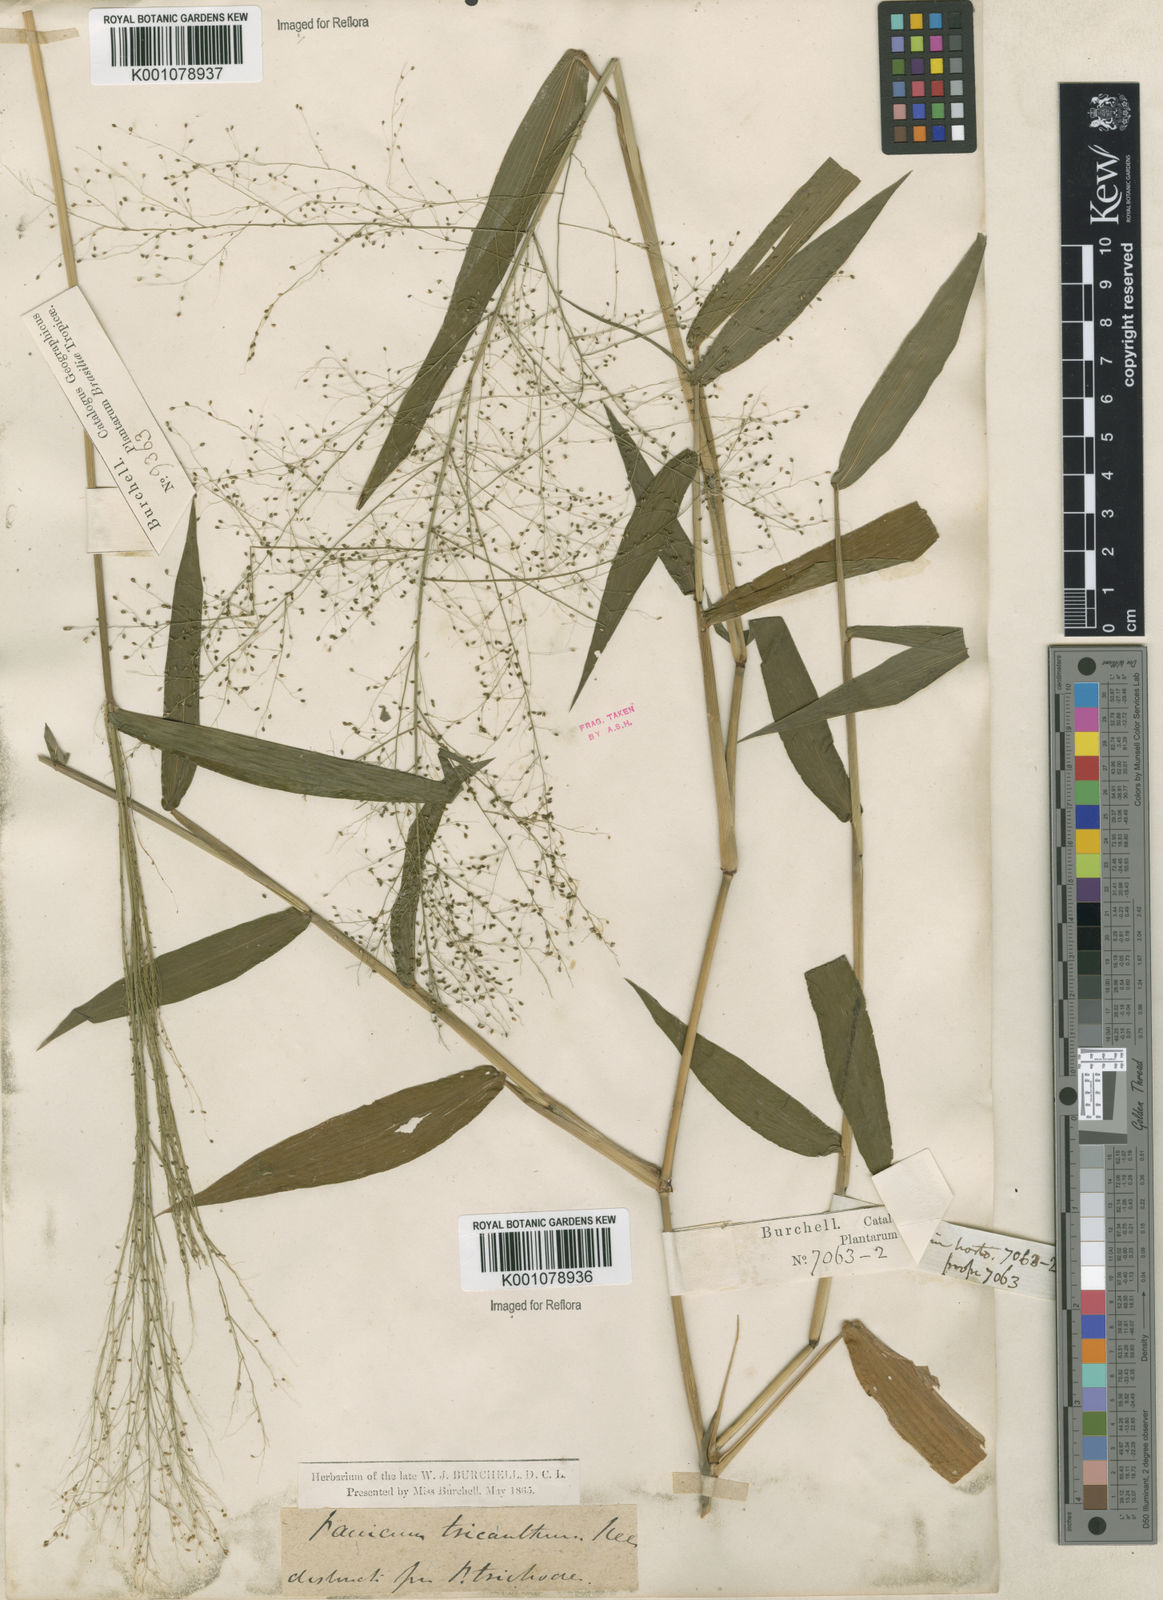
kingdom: Plantae
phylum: Tracheophyta
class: Liliopsida
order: Poales
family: Poaceae
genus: Panicum
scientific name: Panicum
